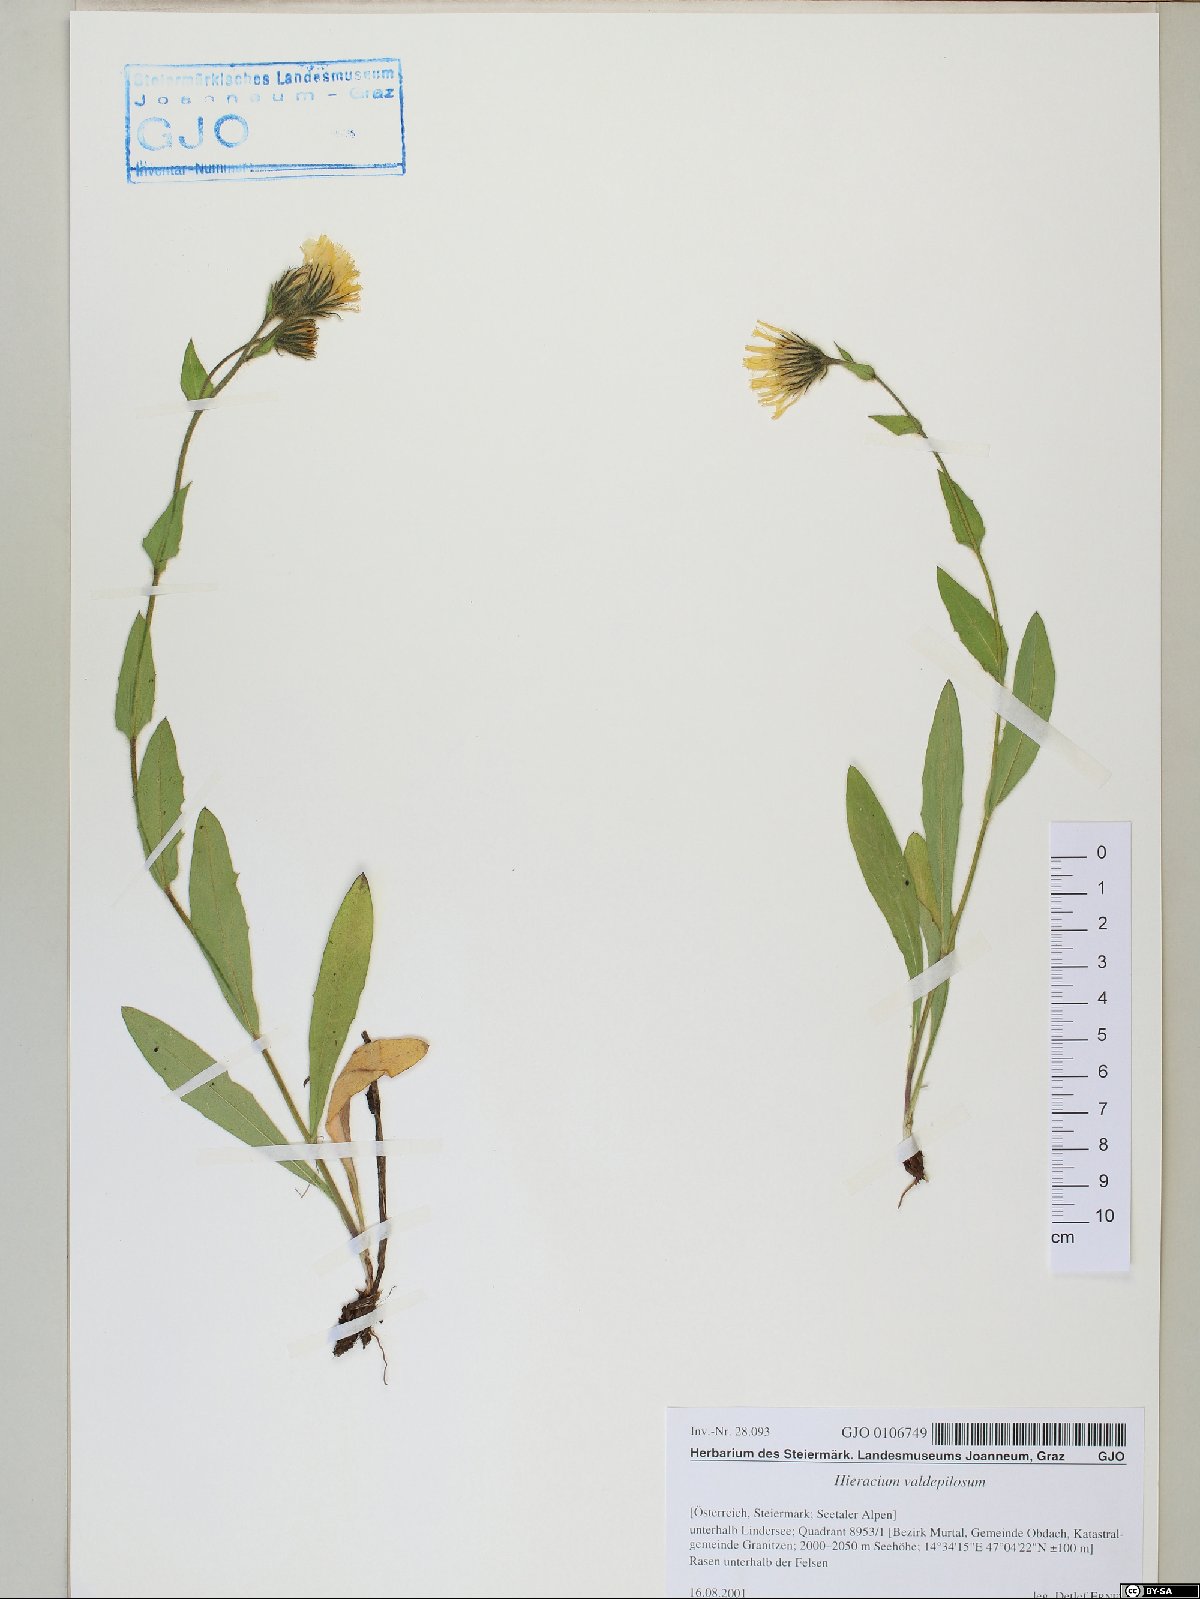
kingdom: Plantae
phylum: Tracheophyta
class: Magnoliopsida
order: Asterales
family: Asteraceae
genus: Hieracium
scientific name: Hieracium valdepilosum
